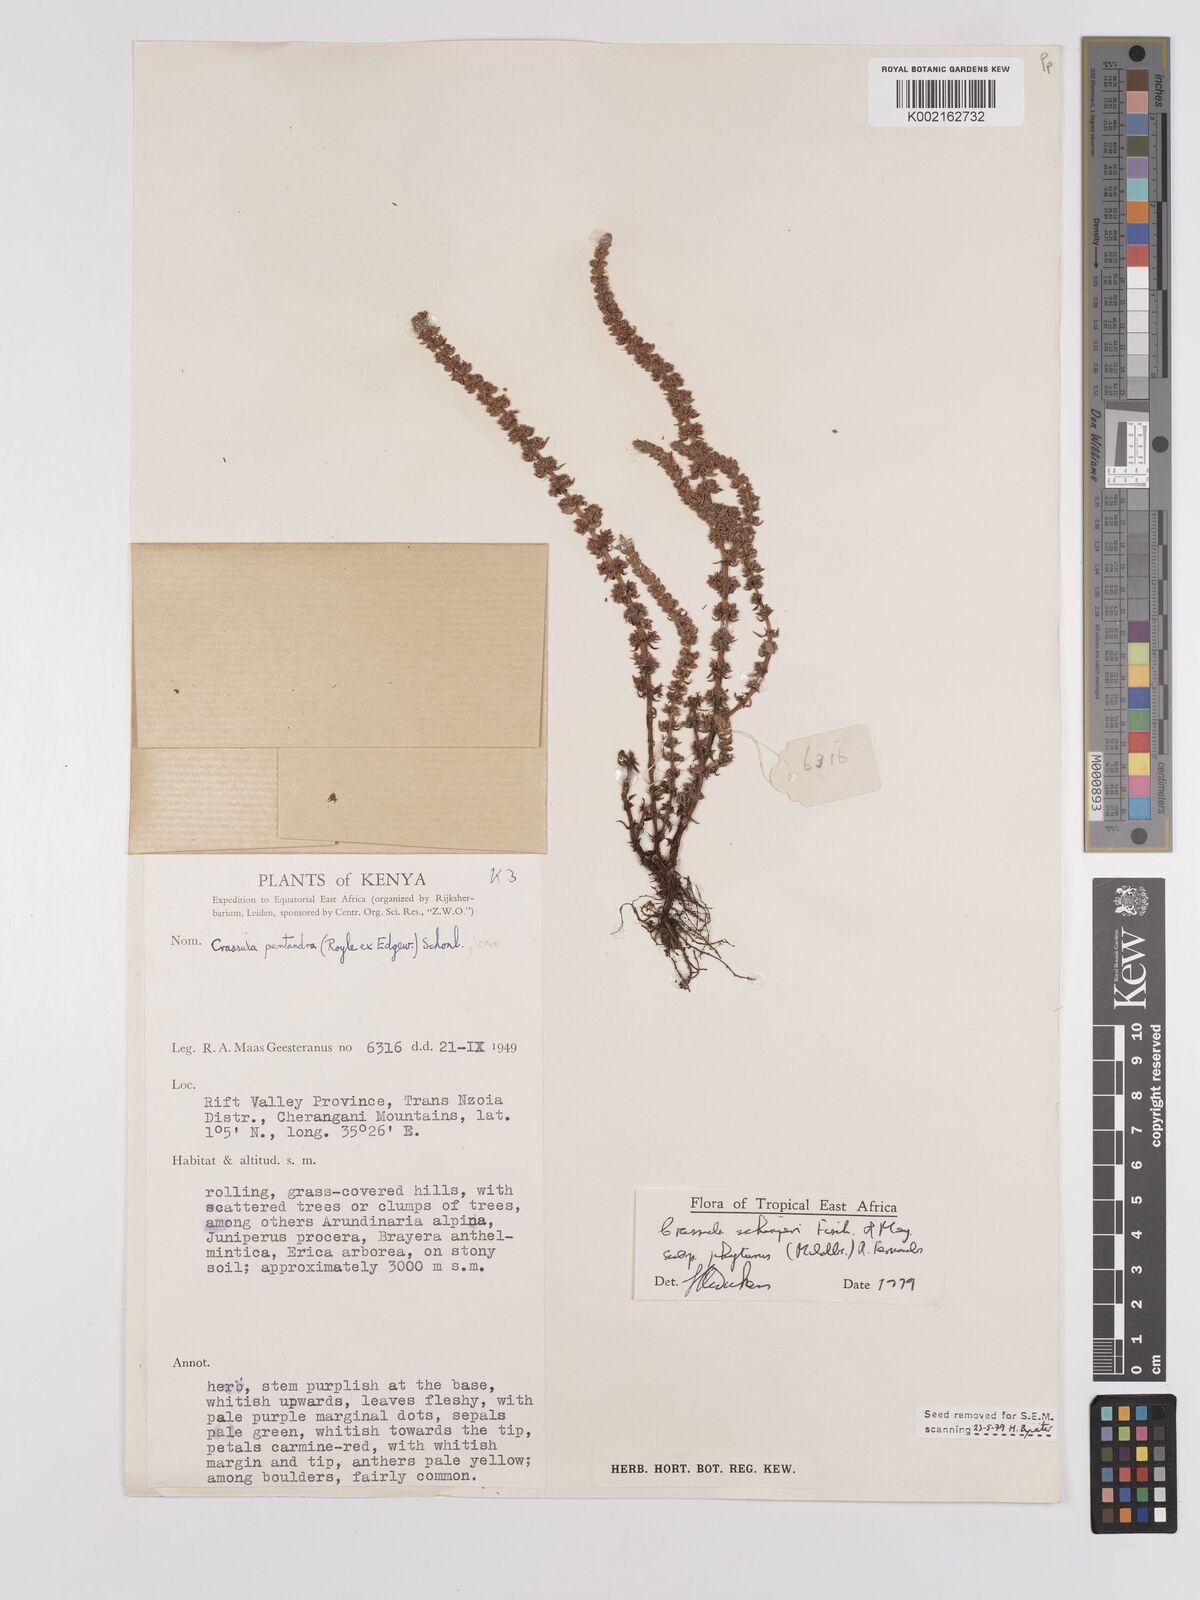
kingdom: Plantae
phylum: Tracheophyta
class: Magnoliopsida
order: Saxifragales
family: Crassulaceae
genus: Crassula
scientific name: Crassula schimperi
